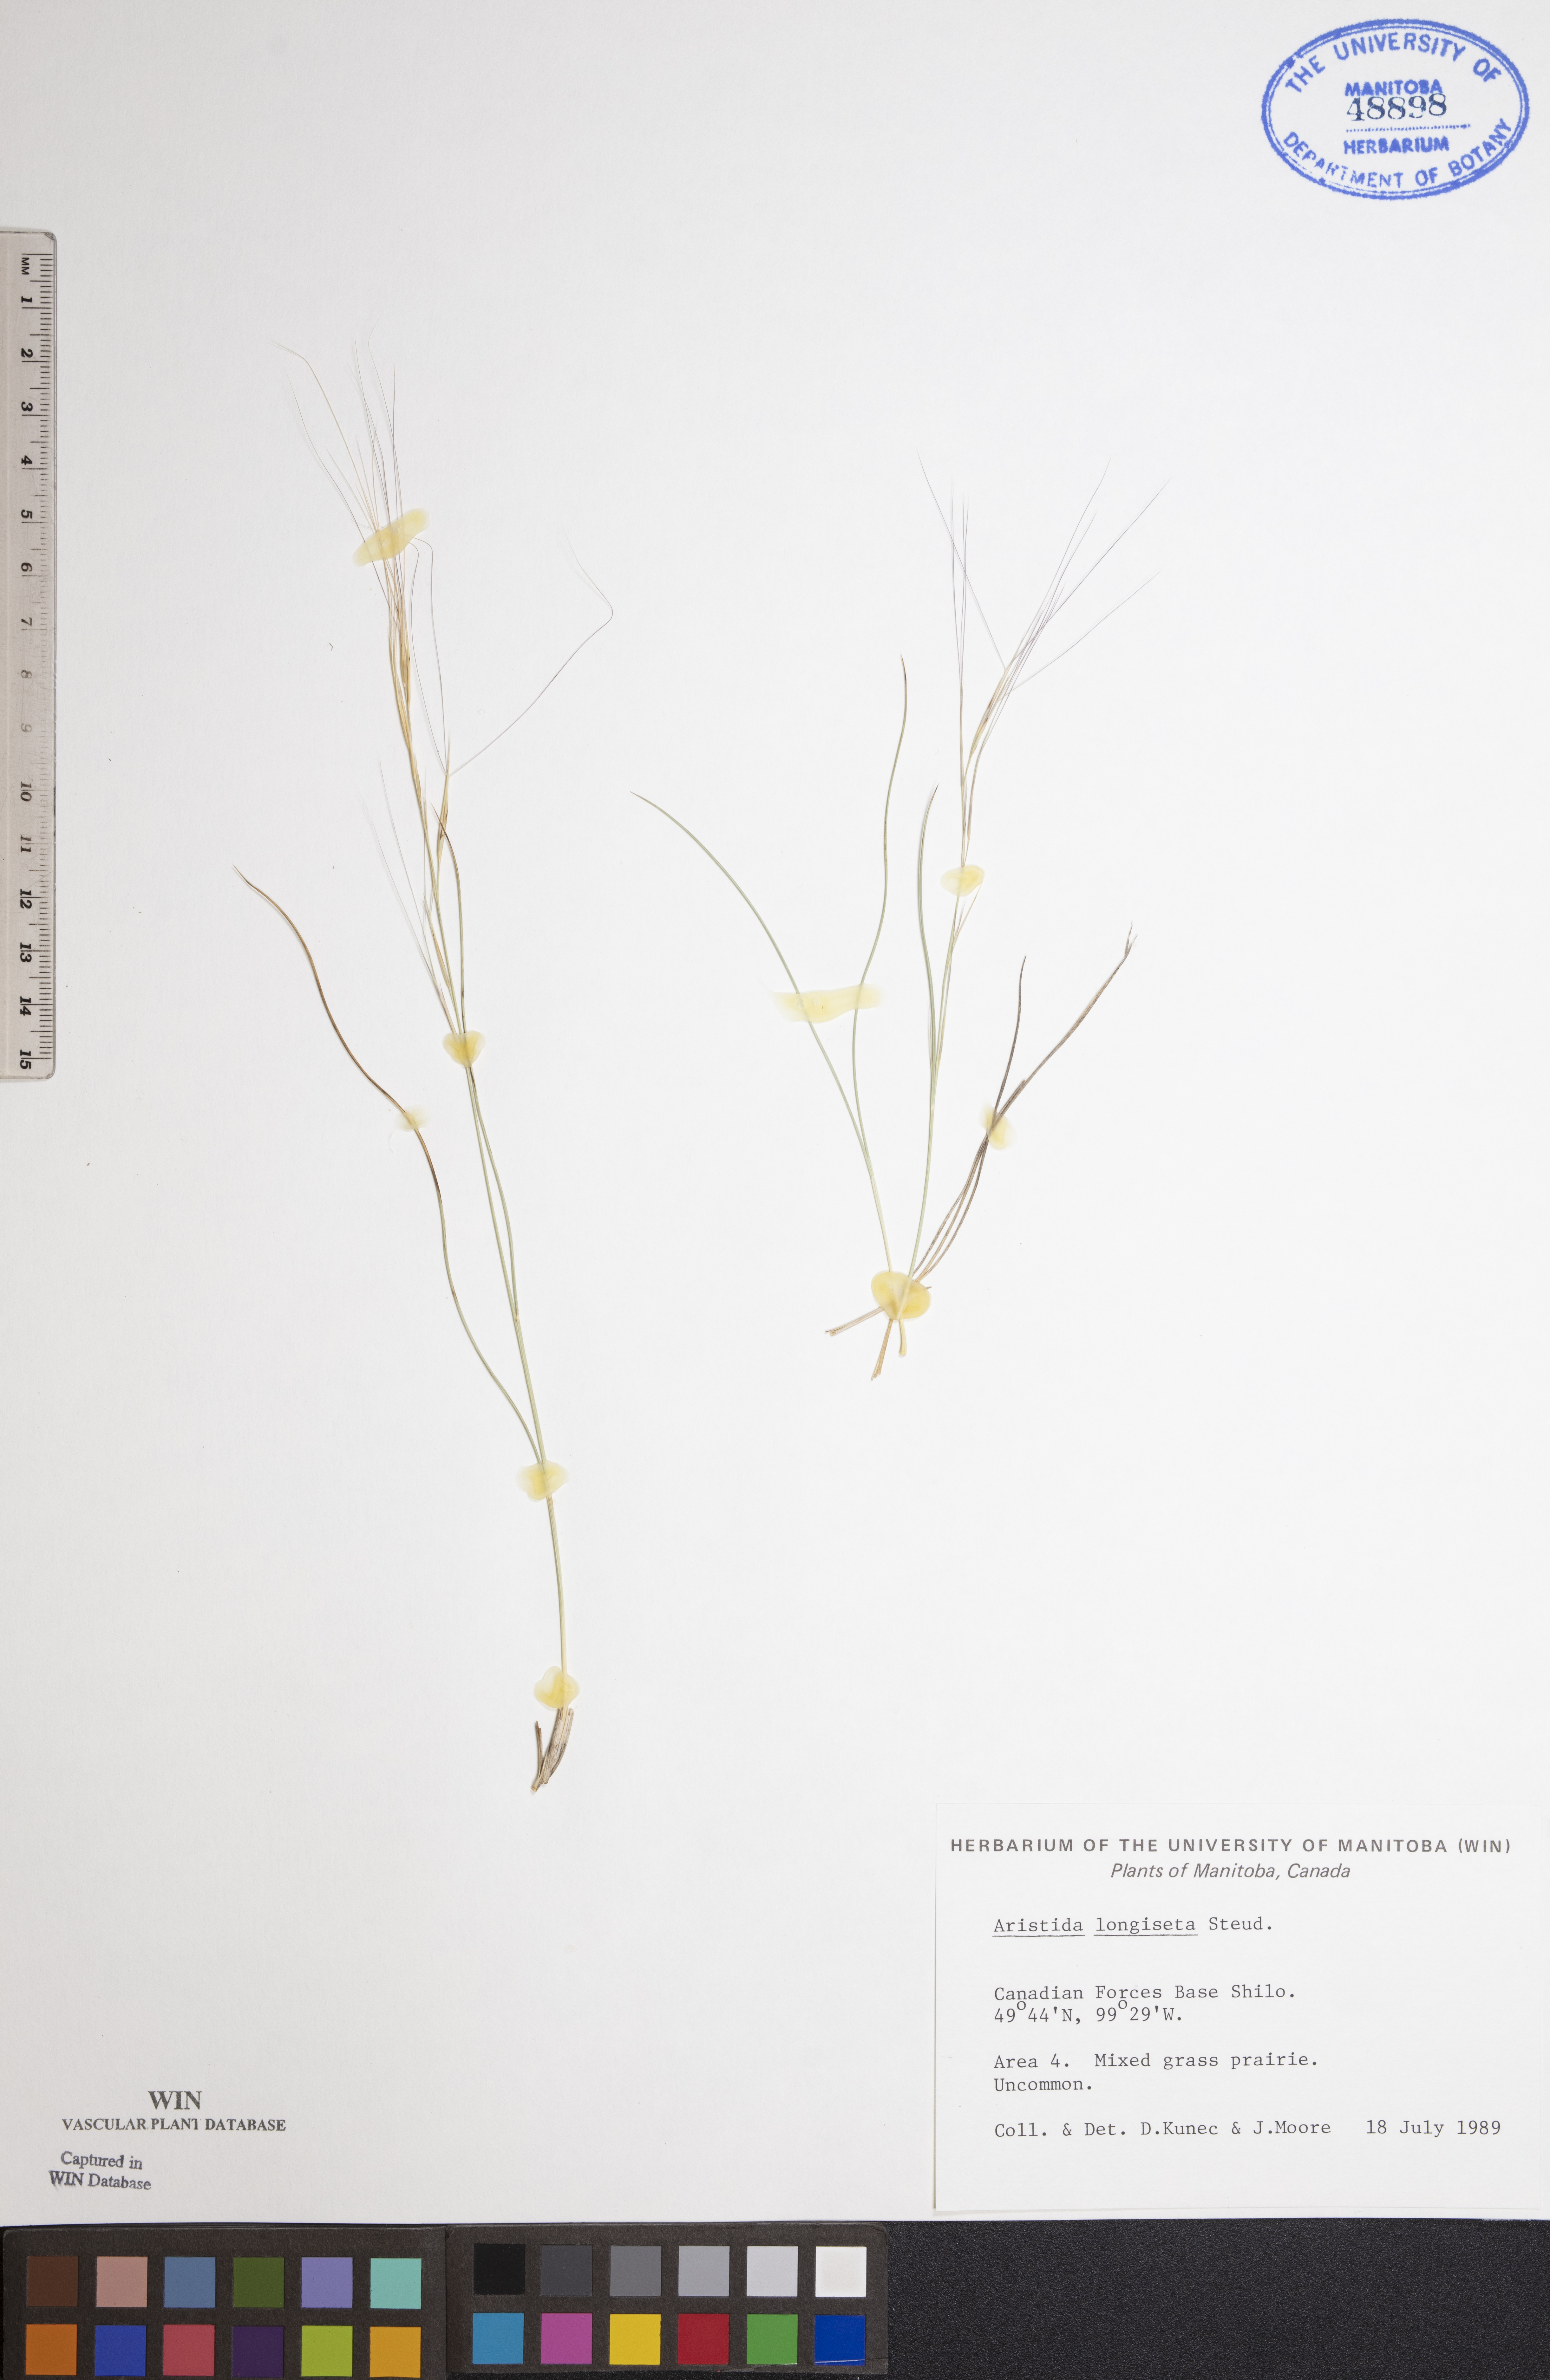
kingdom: Plantae
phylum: Tracheophyta
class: Liliopsida
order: Poales
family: Poaceae
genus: Aristida
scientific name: Aristida longiseta
